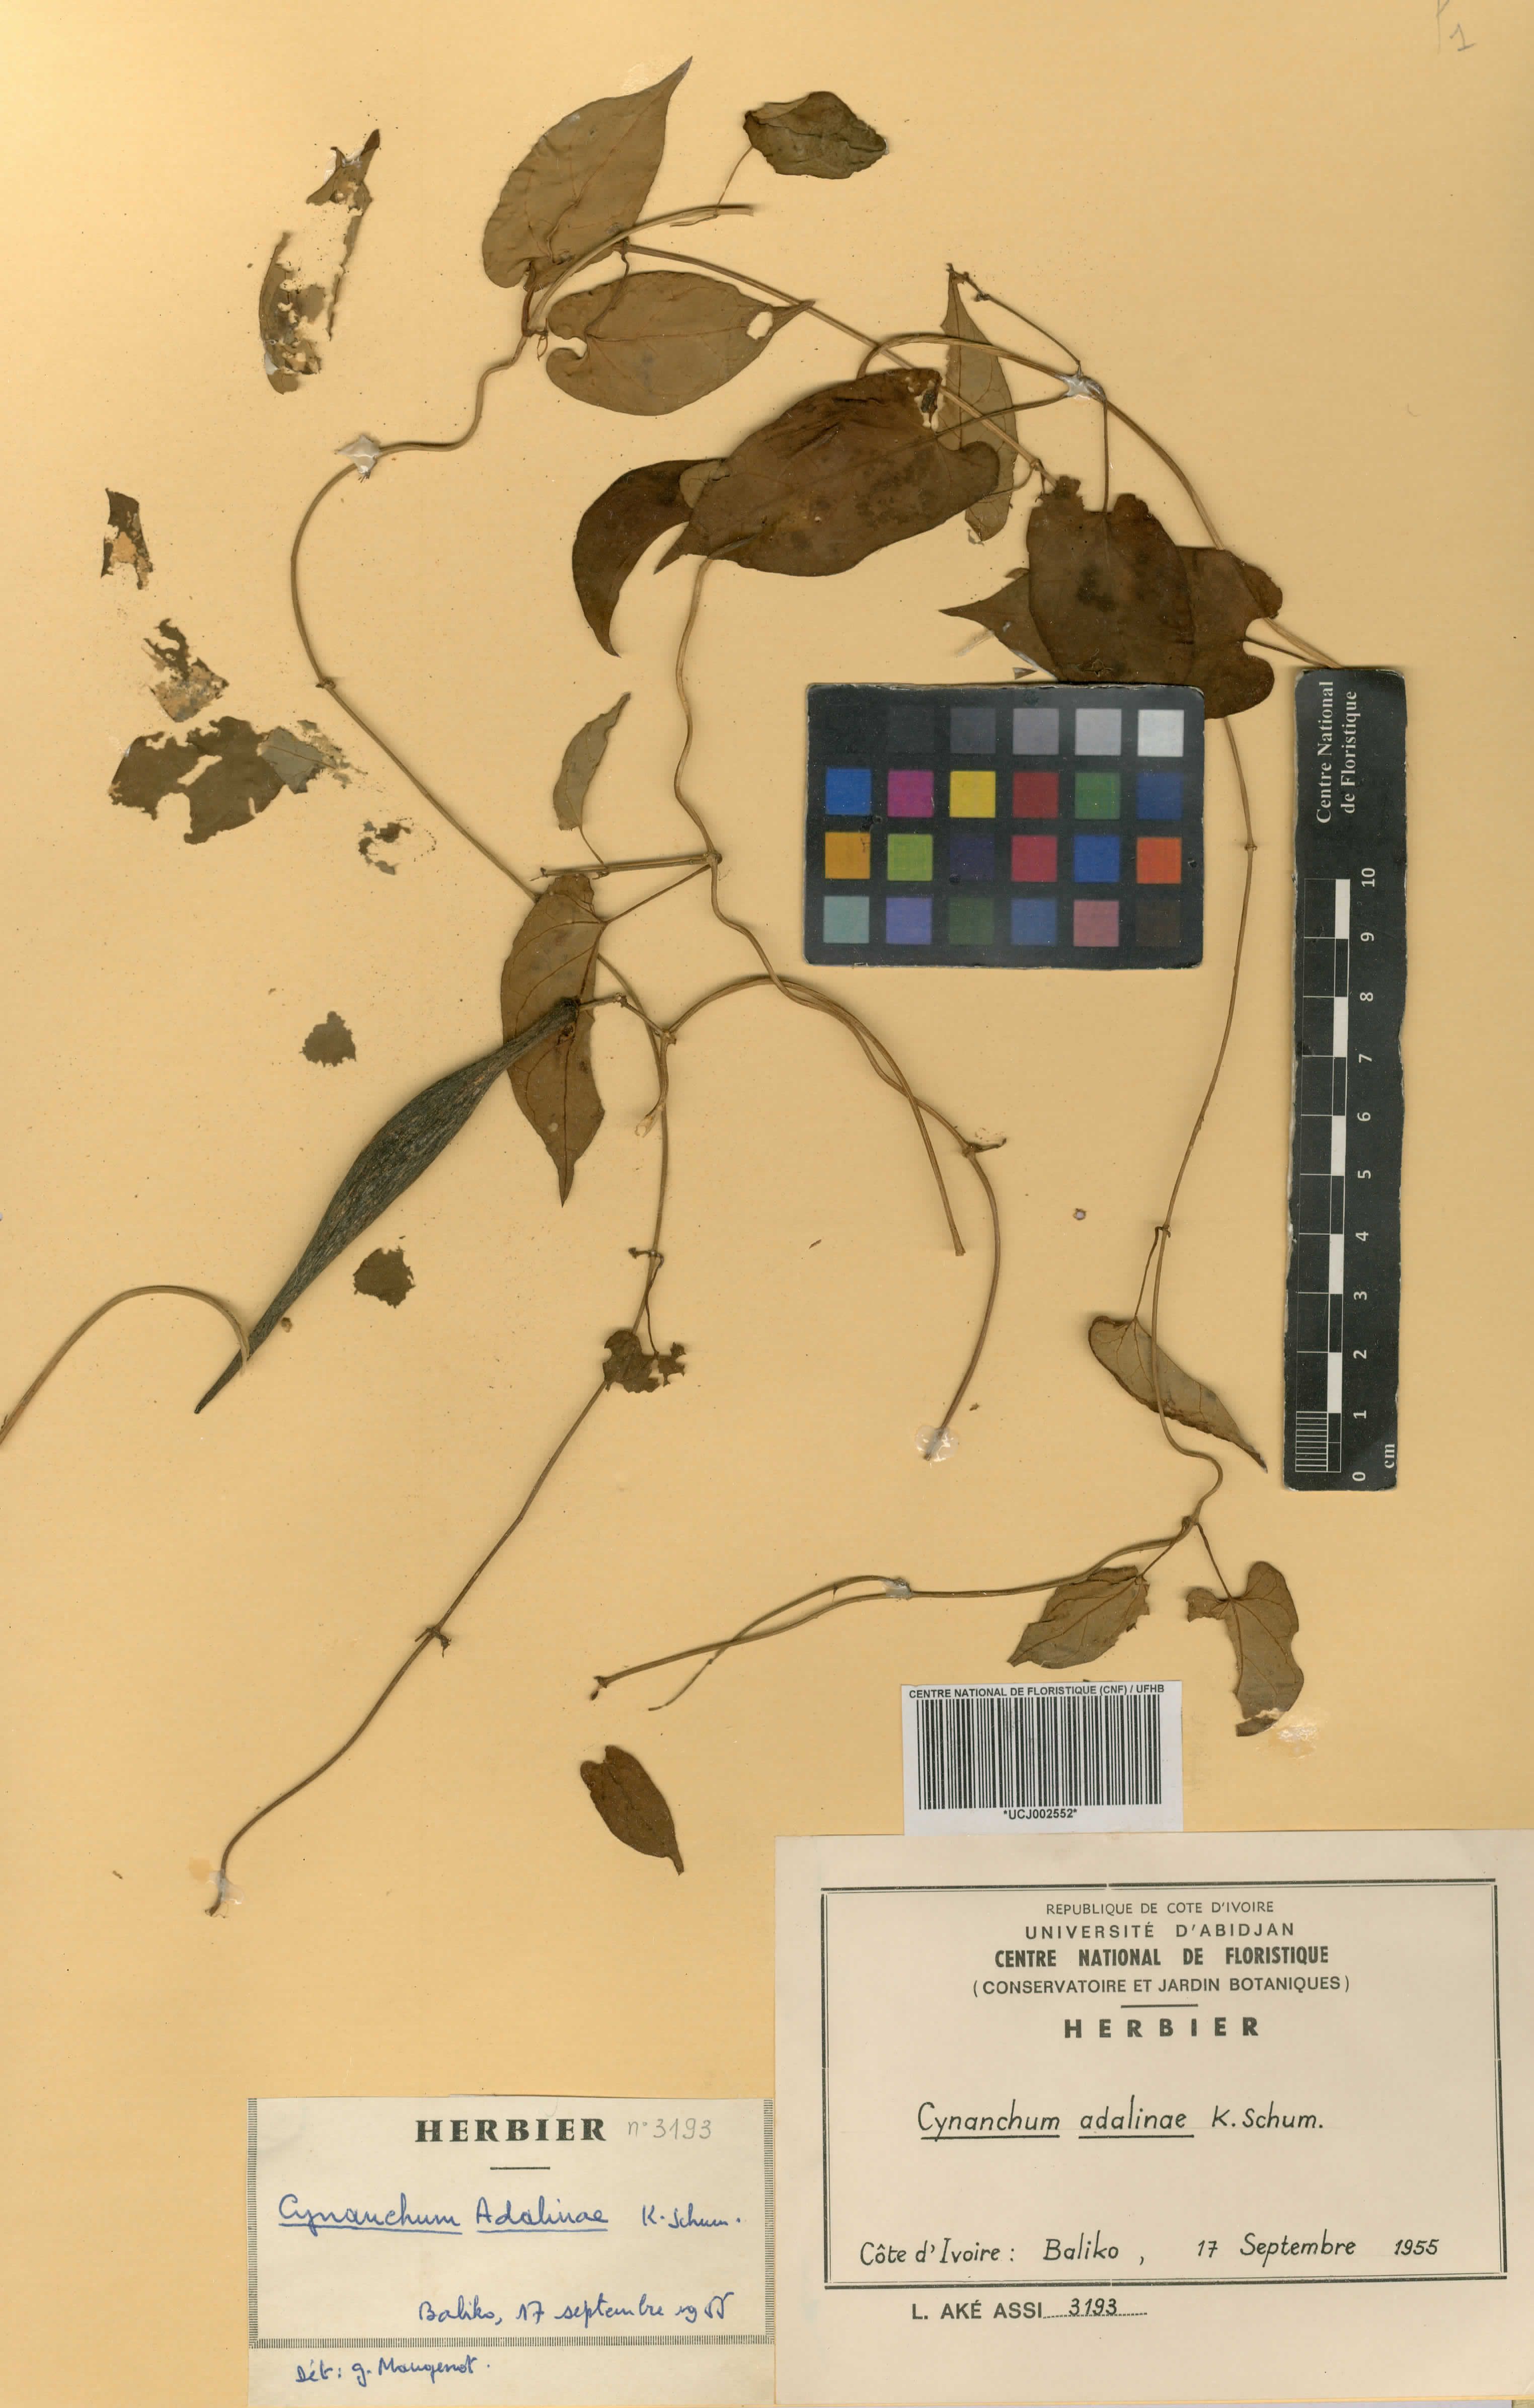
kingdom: Plantae
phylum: Tracheophyta
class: Magnoliopsida
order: Gentianales
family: Apocynaceae
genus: Cynanchum
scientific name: Cynanchum adalinae
